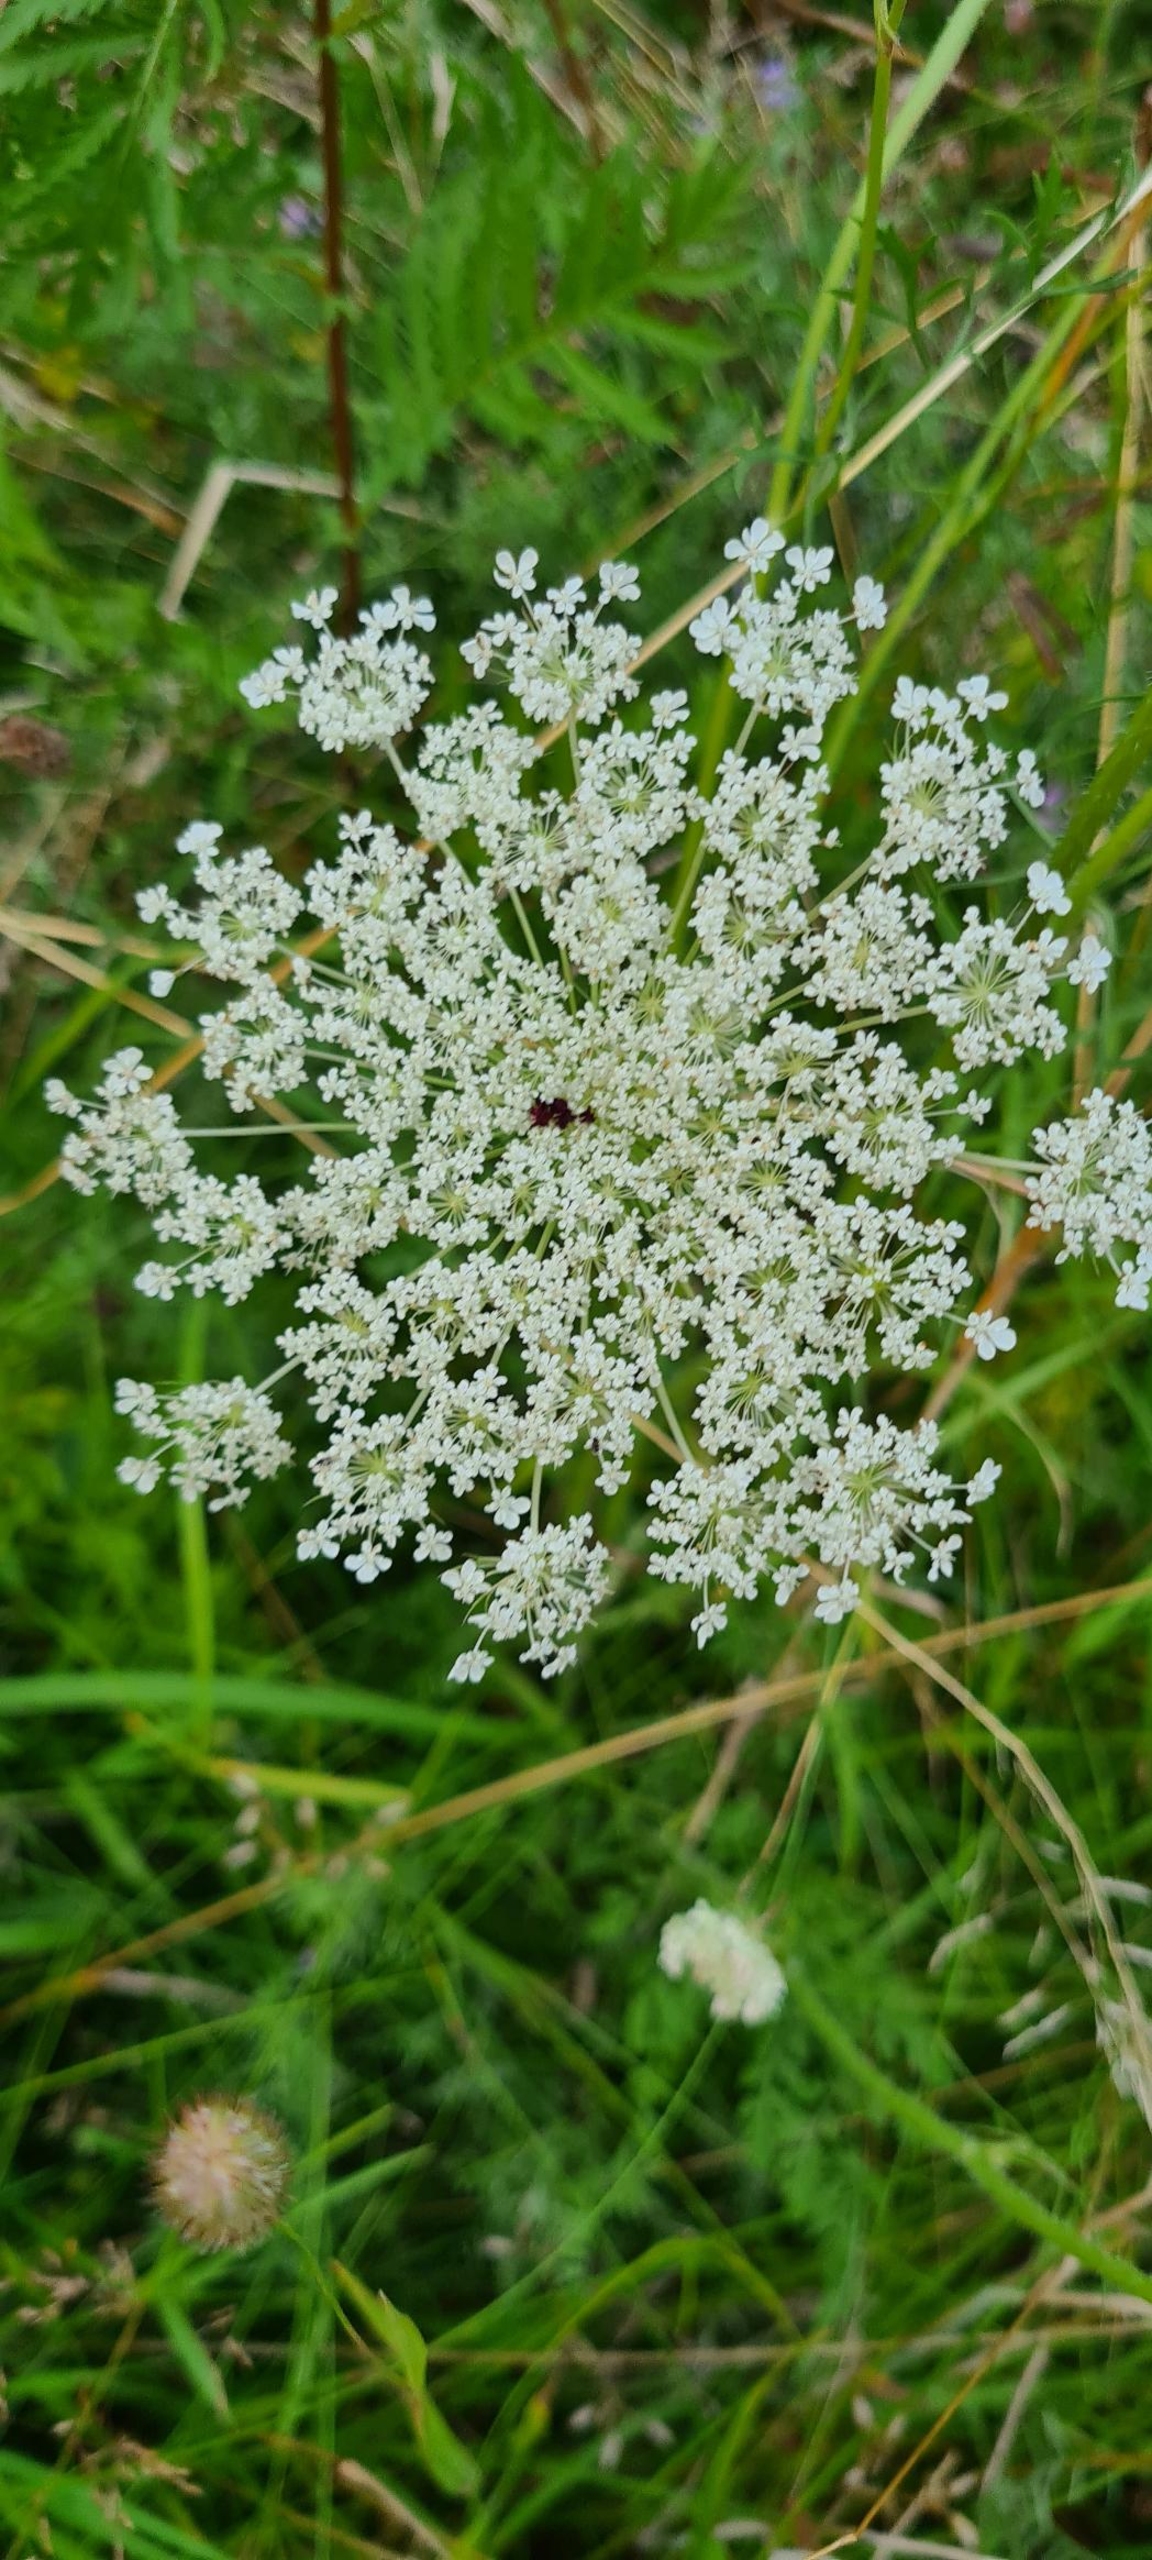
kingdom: Plantae
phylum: Tracheophyta
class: Magnoliopsida
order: Apiales
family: Apiaceae
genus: Daucus
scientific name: Daucus carota
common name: Vild gulerod
